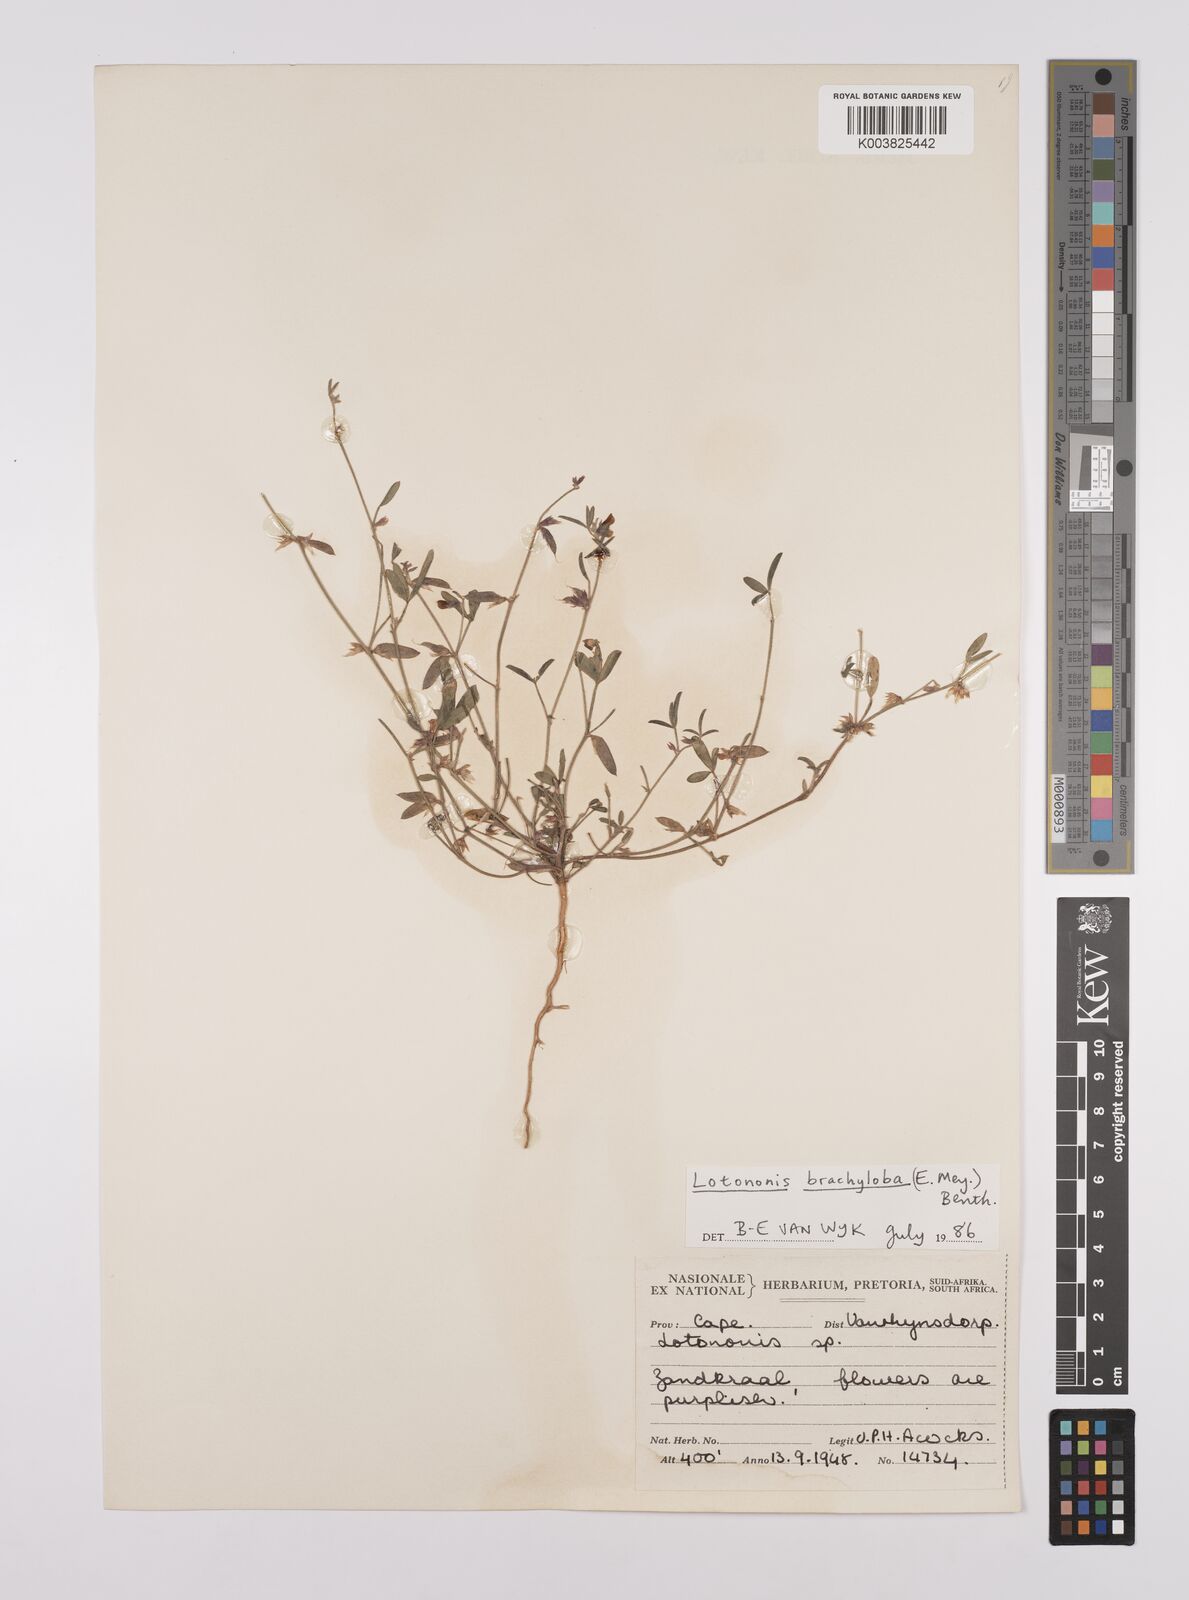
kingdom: Plantae
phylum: Tracheophyta
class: Magnoliopsida
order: Fabales
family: Fabaceae
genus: Lotononis
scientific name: Lotononis parviflora
